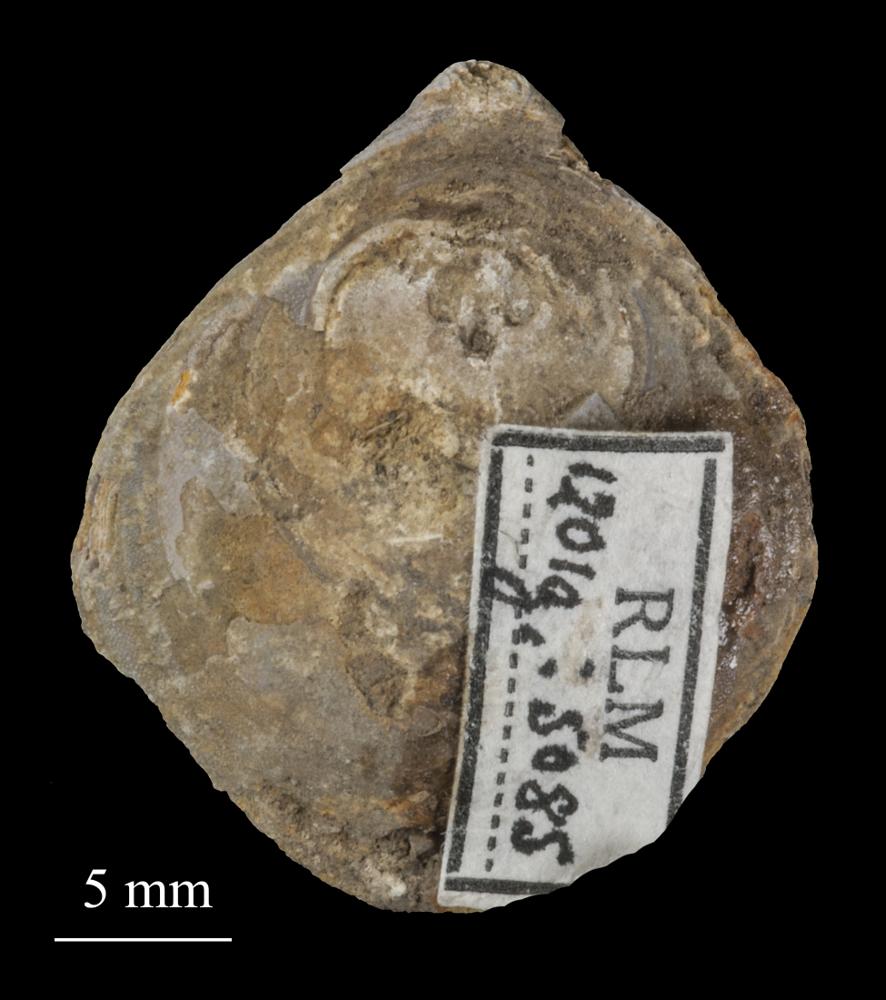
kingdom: Animalia
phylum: Brachiopoda
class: Lingulata
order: Siphonotretida
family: Siphonotretidae
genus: Siphonotreta
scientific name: Siphonotreta
